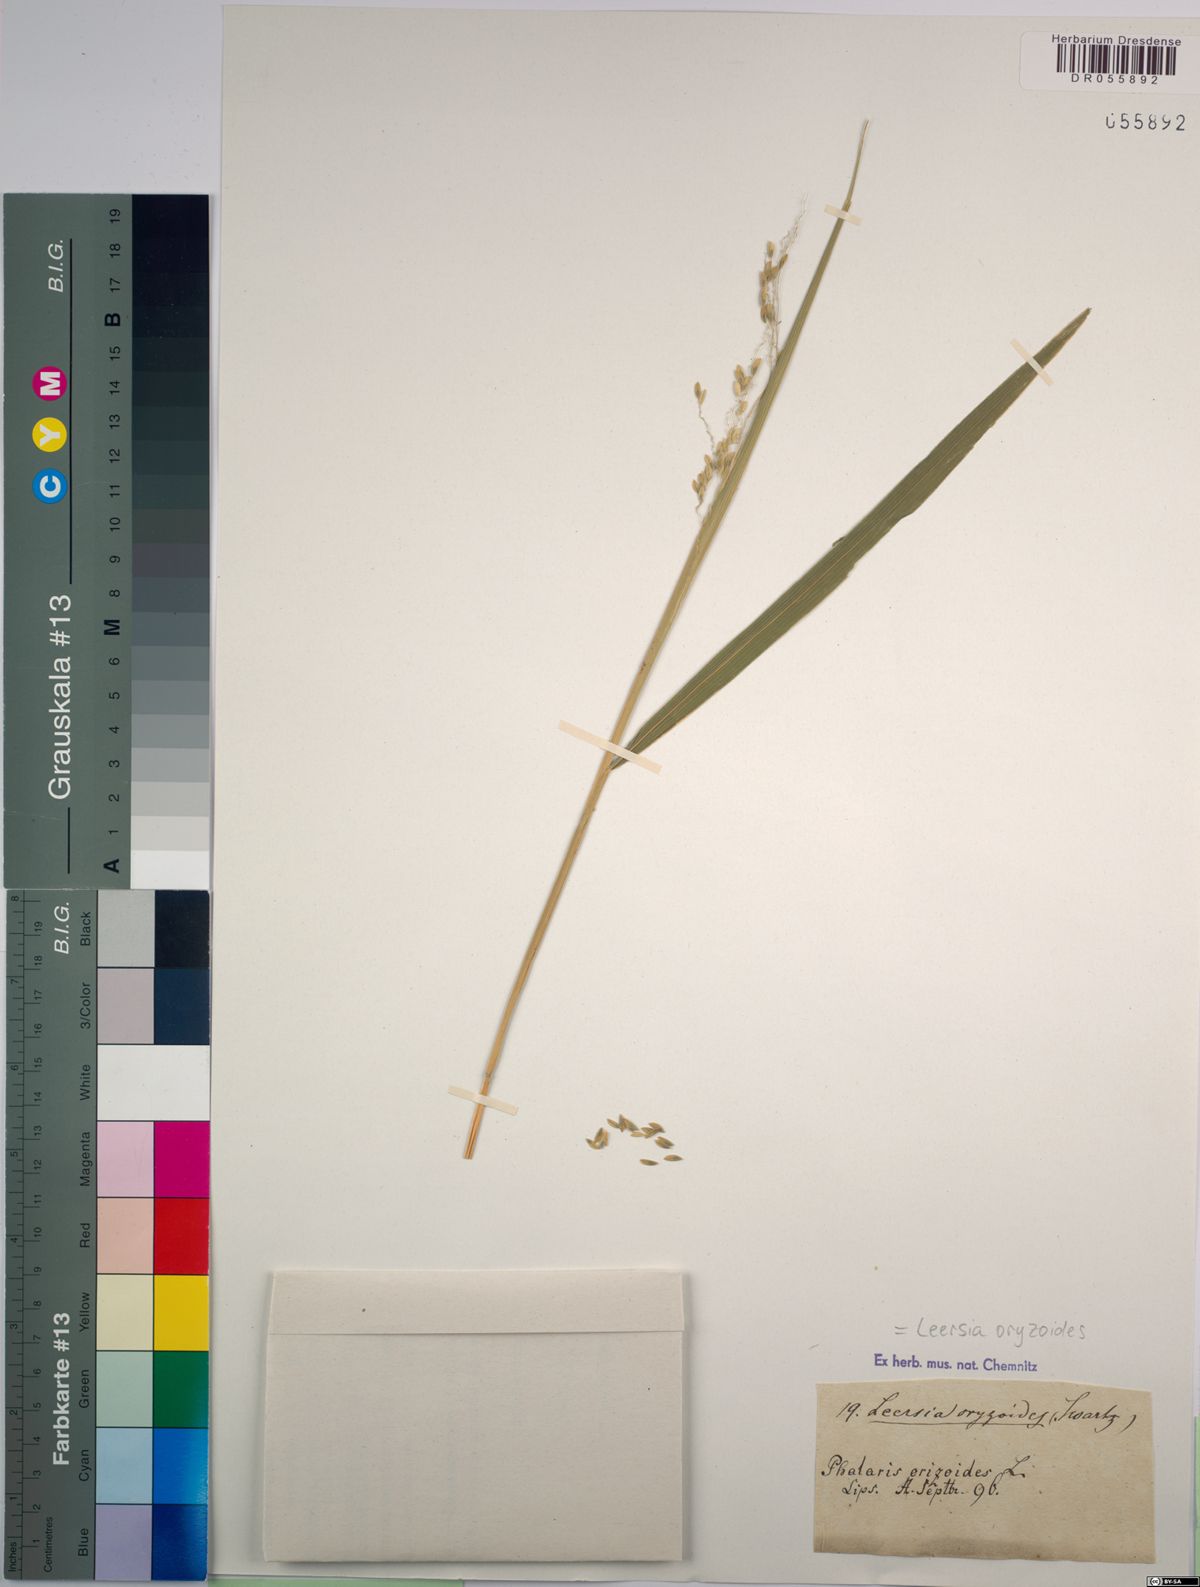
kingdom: Plantae
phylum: Tracheophyta
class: Liliopsida
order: Poales
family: Poaceae
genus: Leersia
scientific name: Leersia oryzoides
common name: Cut-grass
